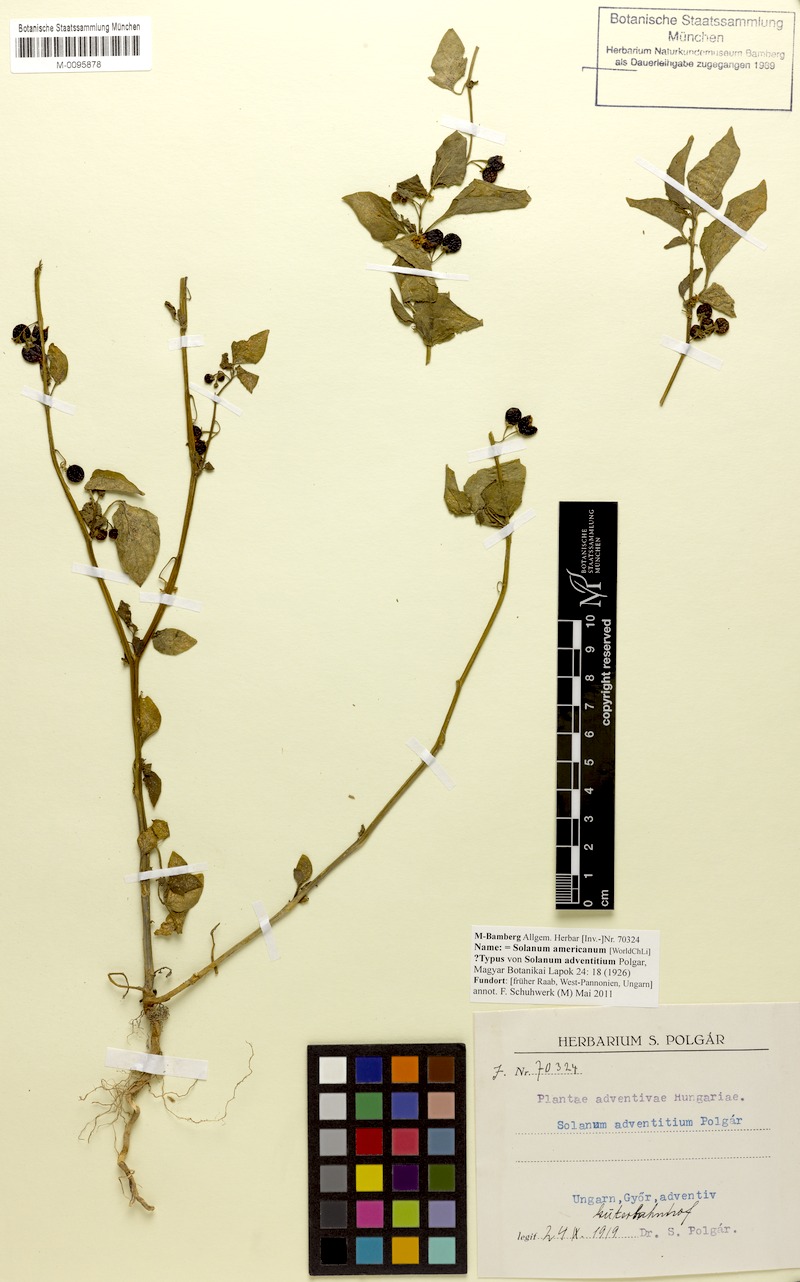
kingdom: Plantae
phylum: Tracheophyta
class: Magnoliopsida
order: Solanales
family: Solanaceae
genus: Solanum
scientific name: Solanum americanum
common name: American black nightshade
